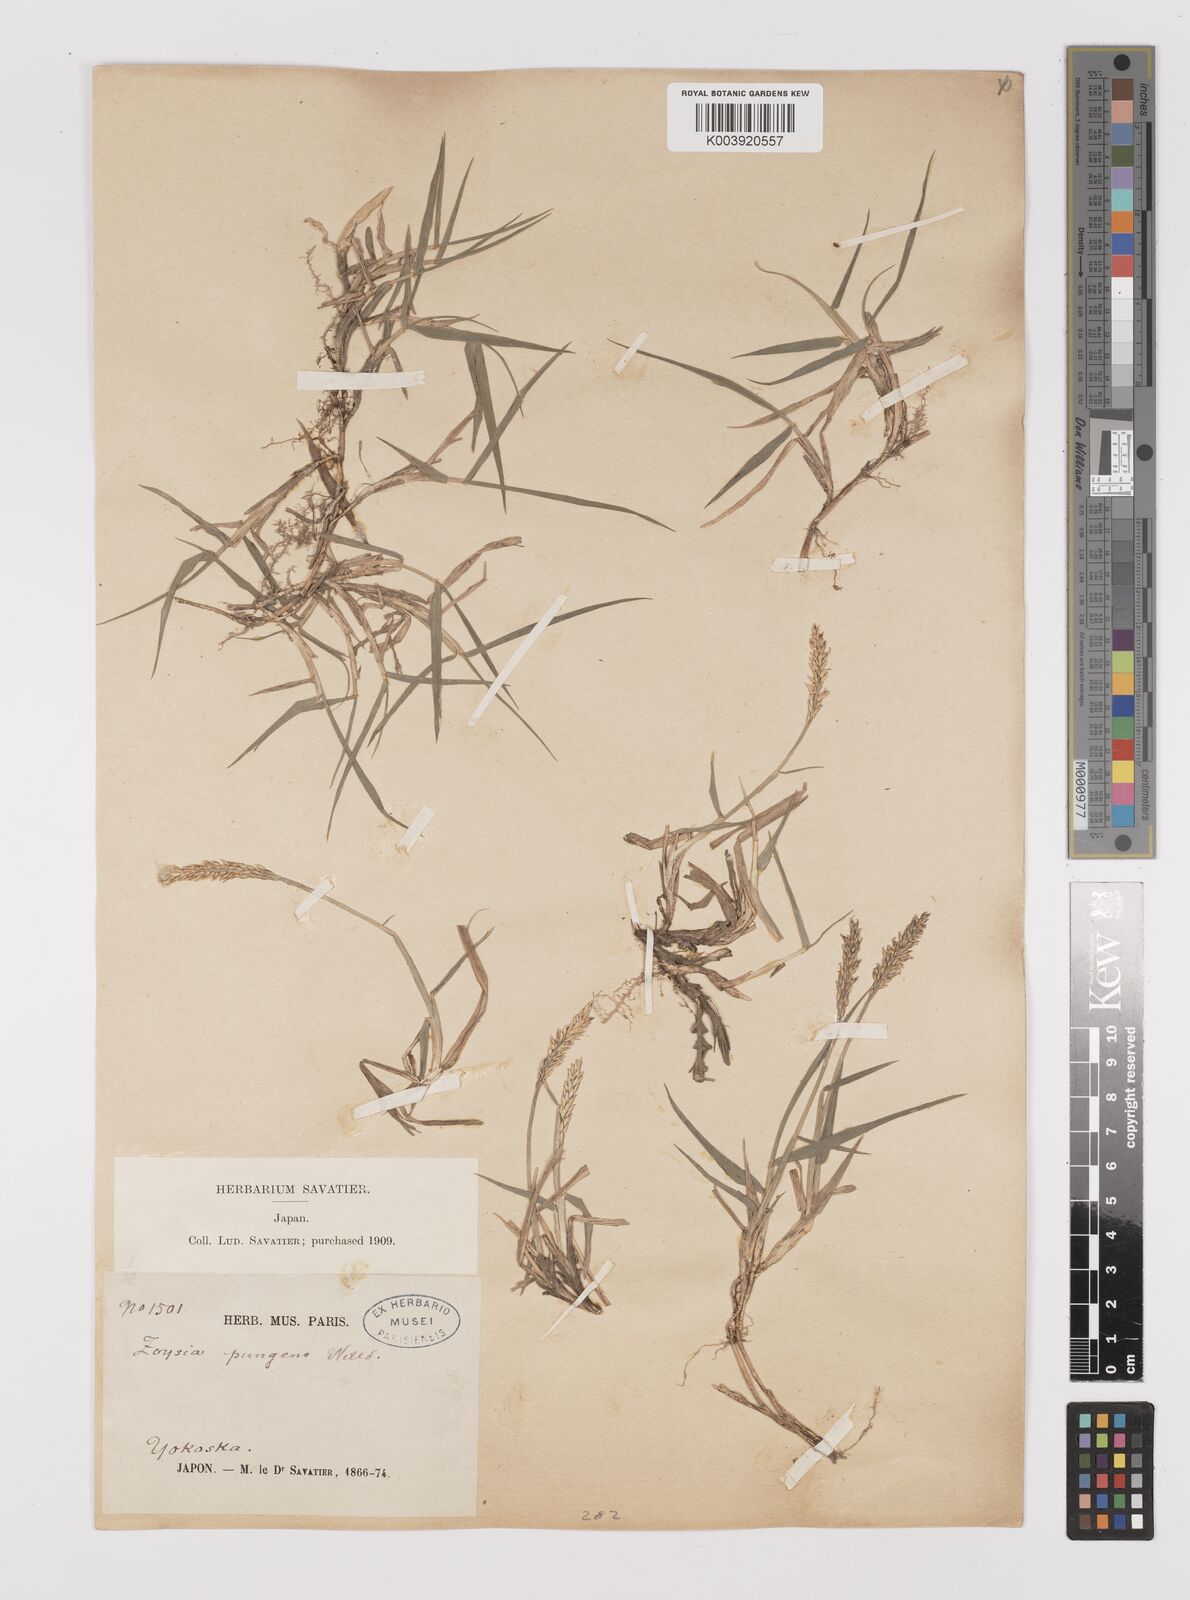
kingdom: Plantae
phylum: Tracheophyta
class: Liliopsida
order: Poales
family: Poaceae
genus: Zoysia
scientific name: Zoysia japonica
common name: Korean lawngrass
